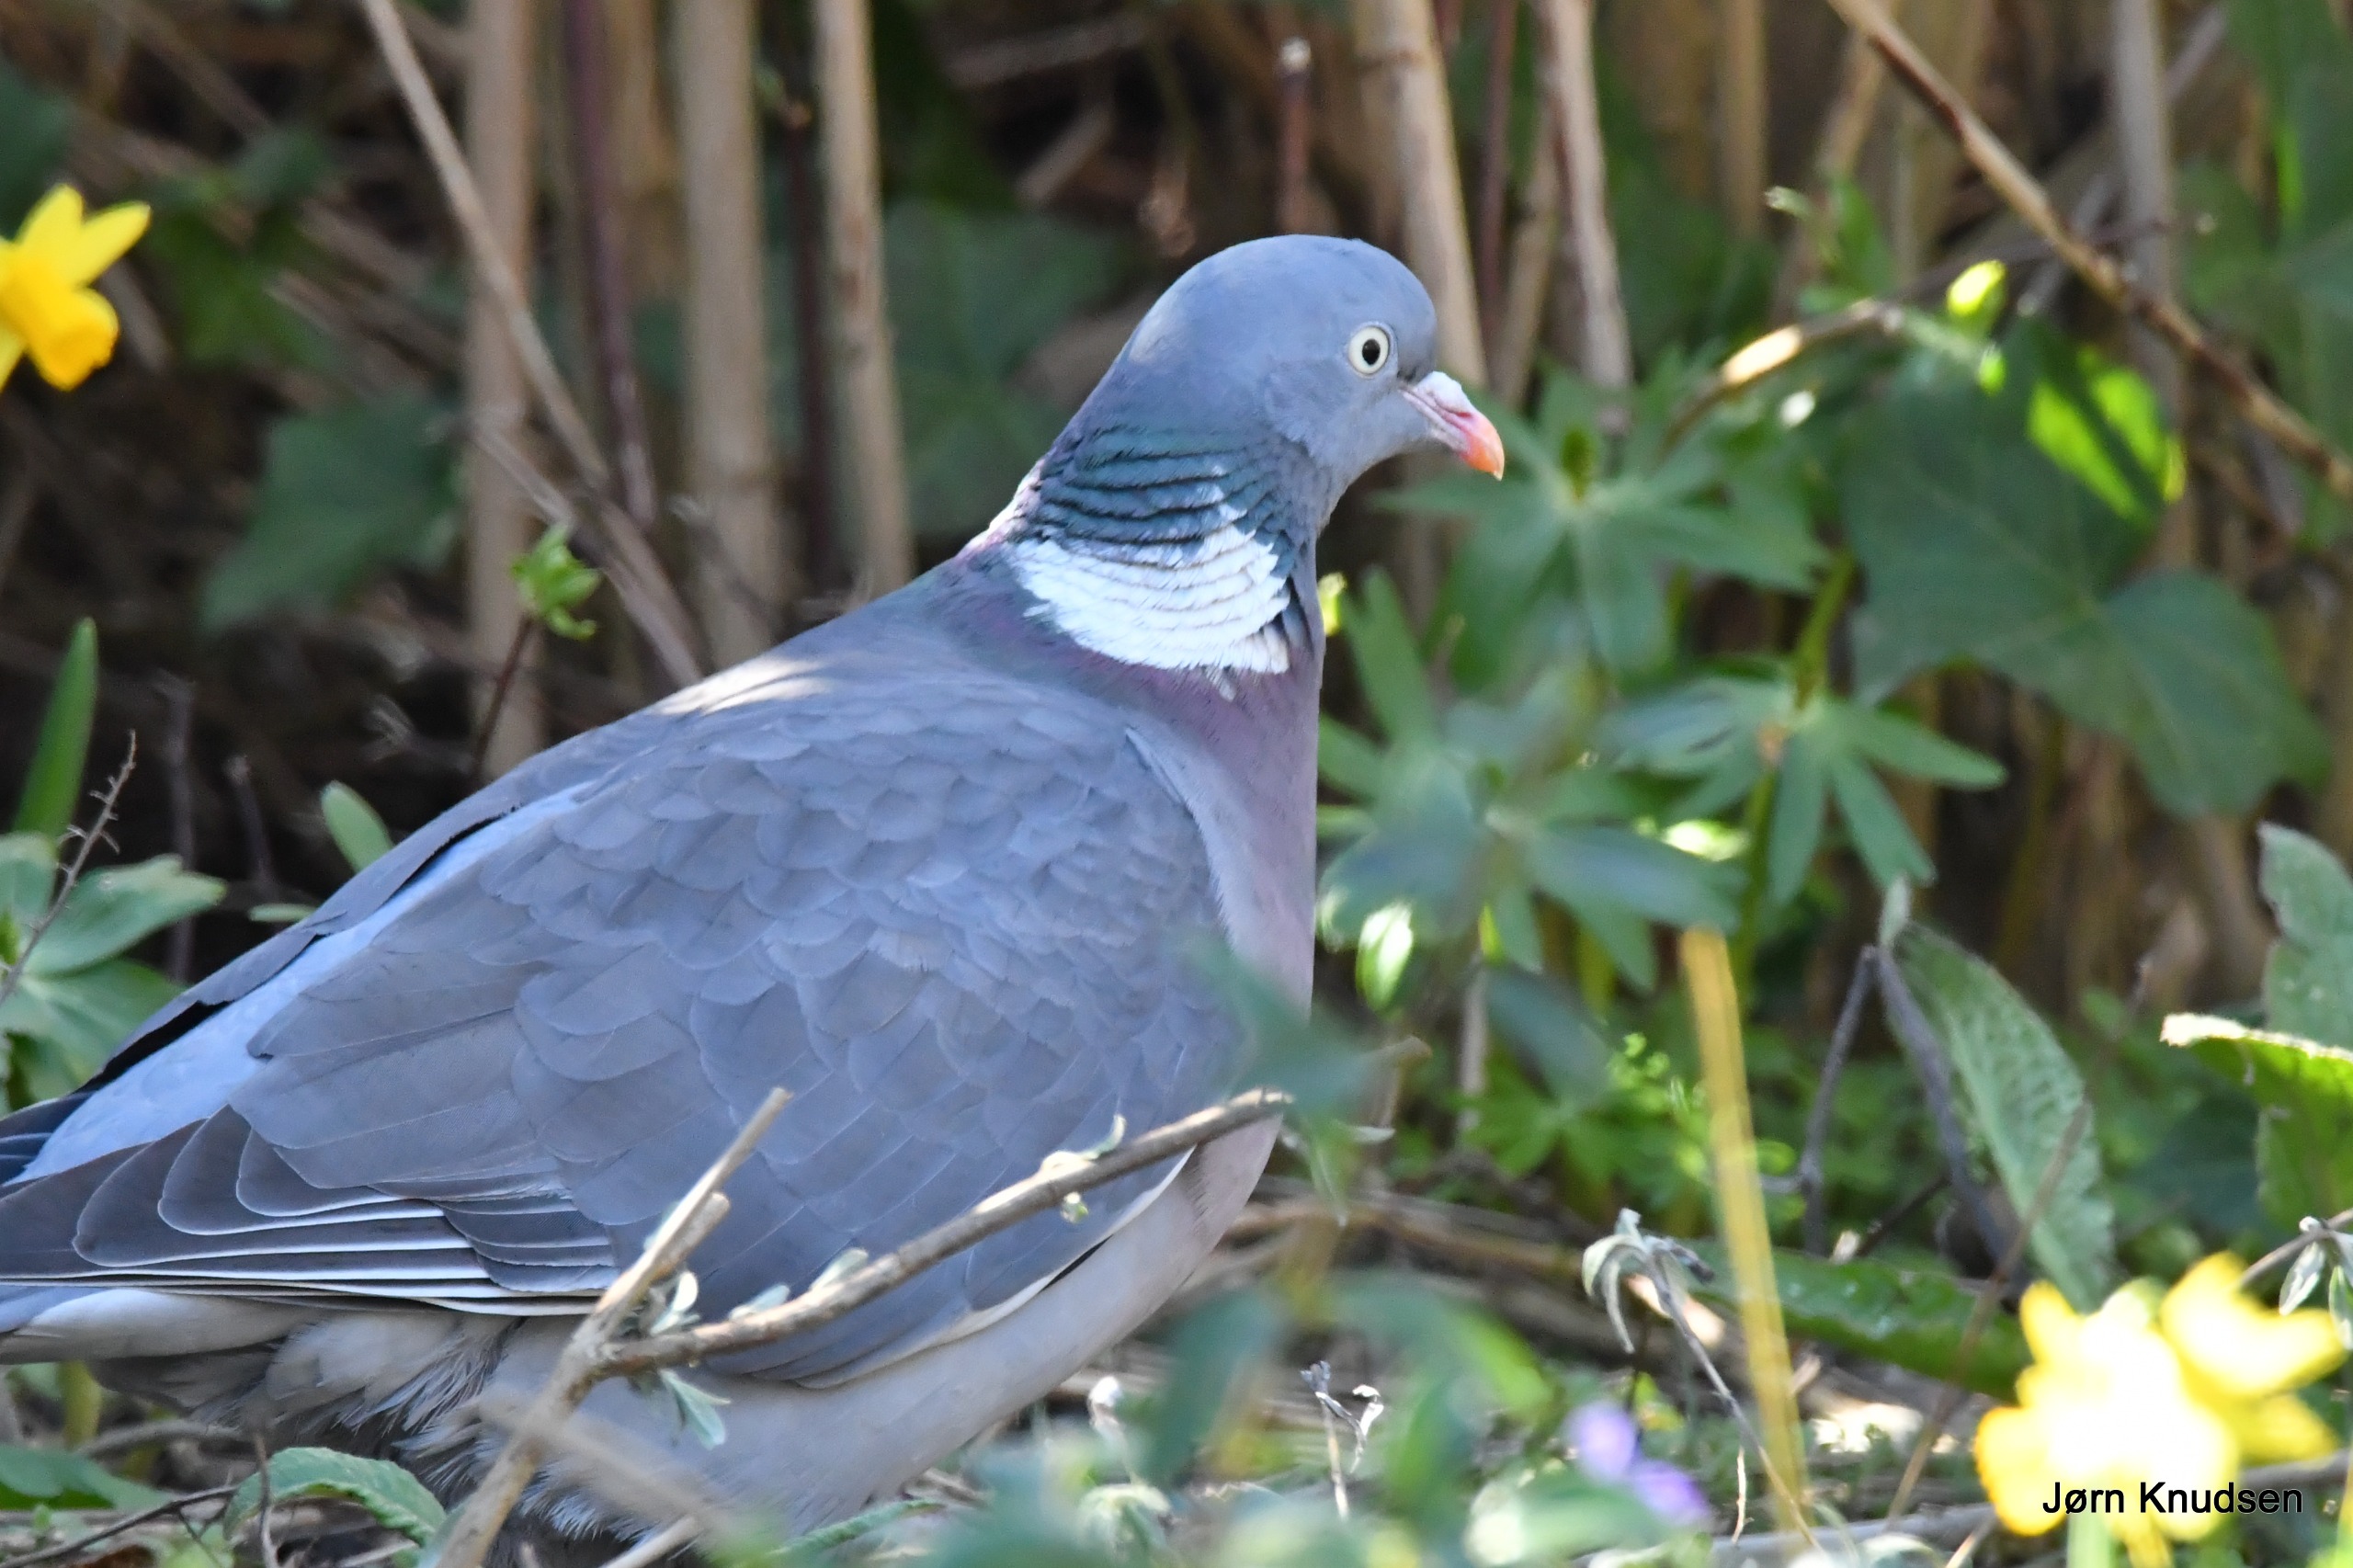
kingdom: Animalia
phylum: Chordata
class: Aves
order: Columbiformes
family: Columbidae
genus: Columba
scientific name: Columba palumbus
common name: Ringdue
